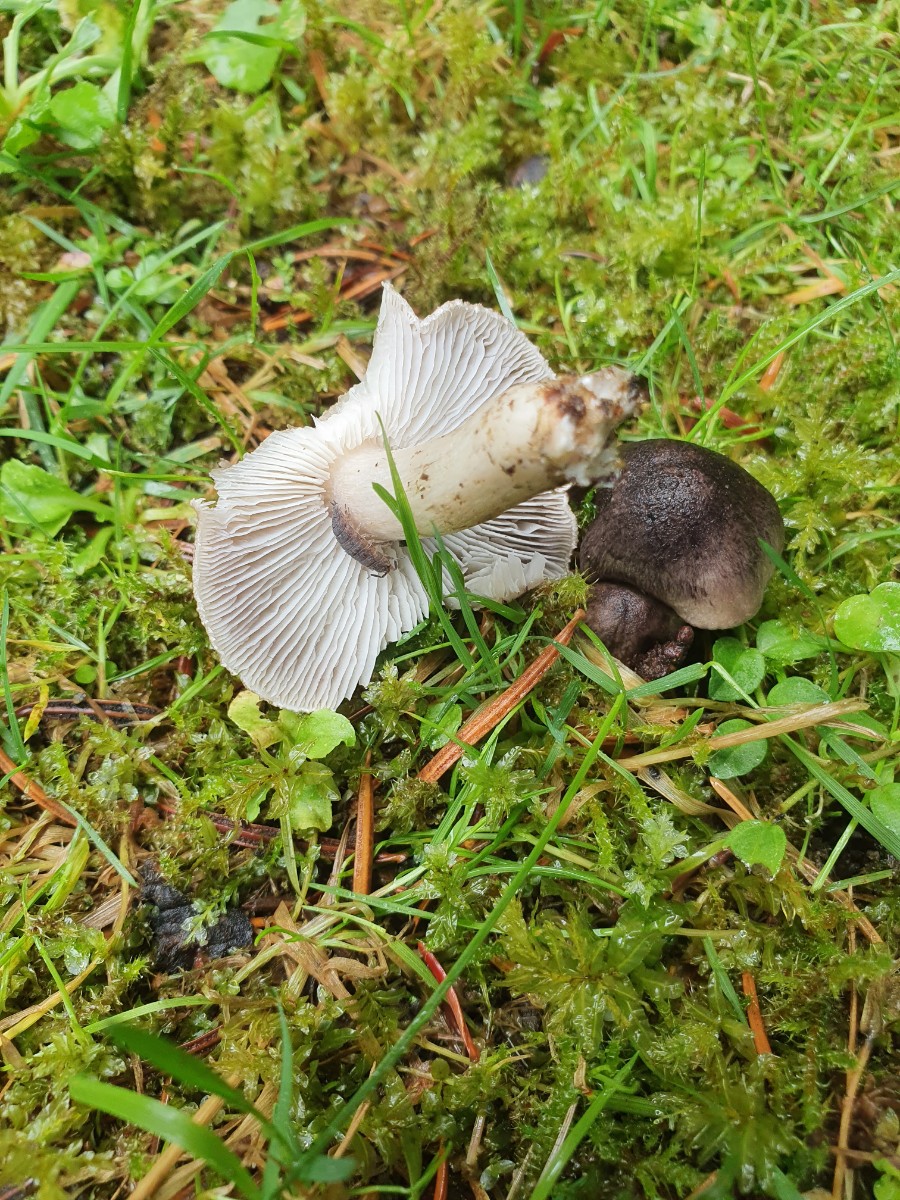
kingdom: Fungi
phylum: Basidiomycota
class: Agaricomycetes
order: Agaricales
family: Tricholomataceae
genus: Tricholoma
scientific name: Tricholoma terreum
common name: jordfarvet ridderhat
